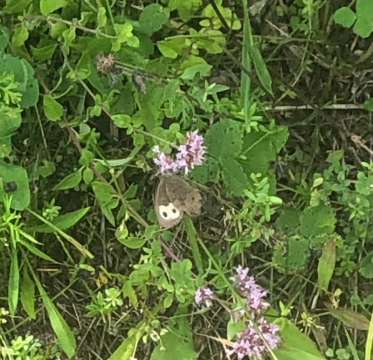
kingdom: Animalia
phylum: Arthropoda
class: Insecta
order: Lepidoptera
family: Nymphalidae
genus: Cercyonis
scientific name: Cercyonis pegala
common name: Common Wood-Nymph
